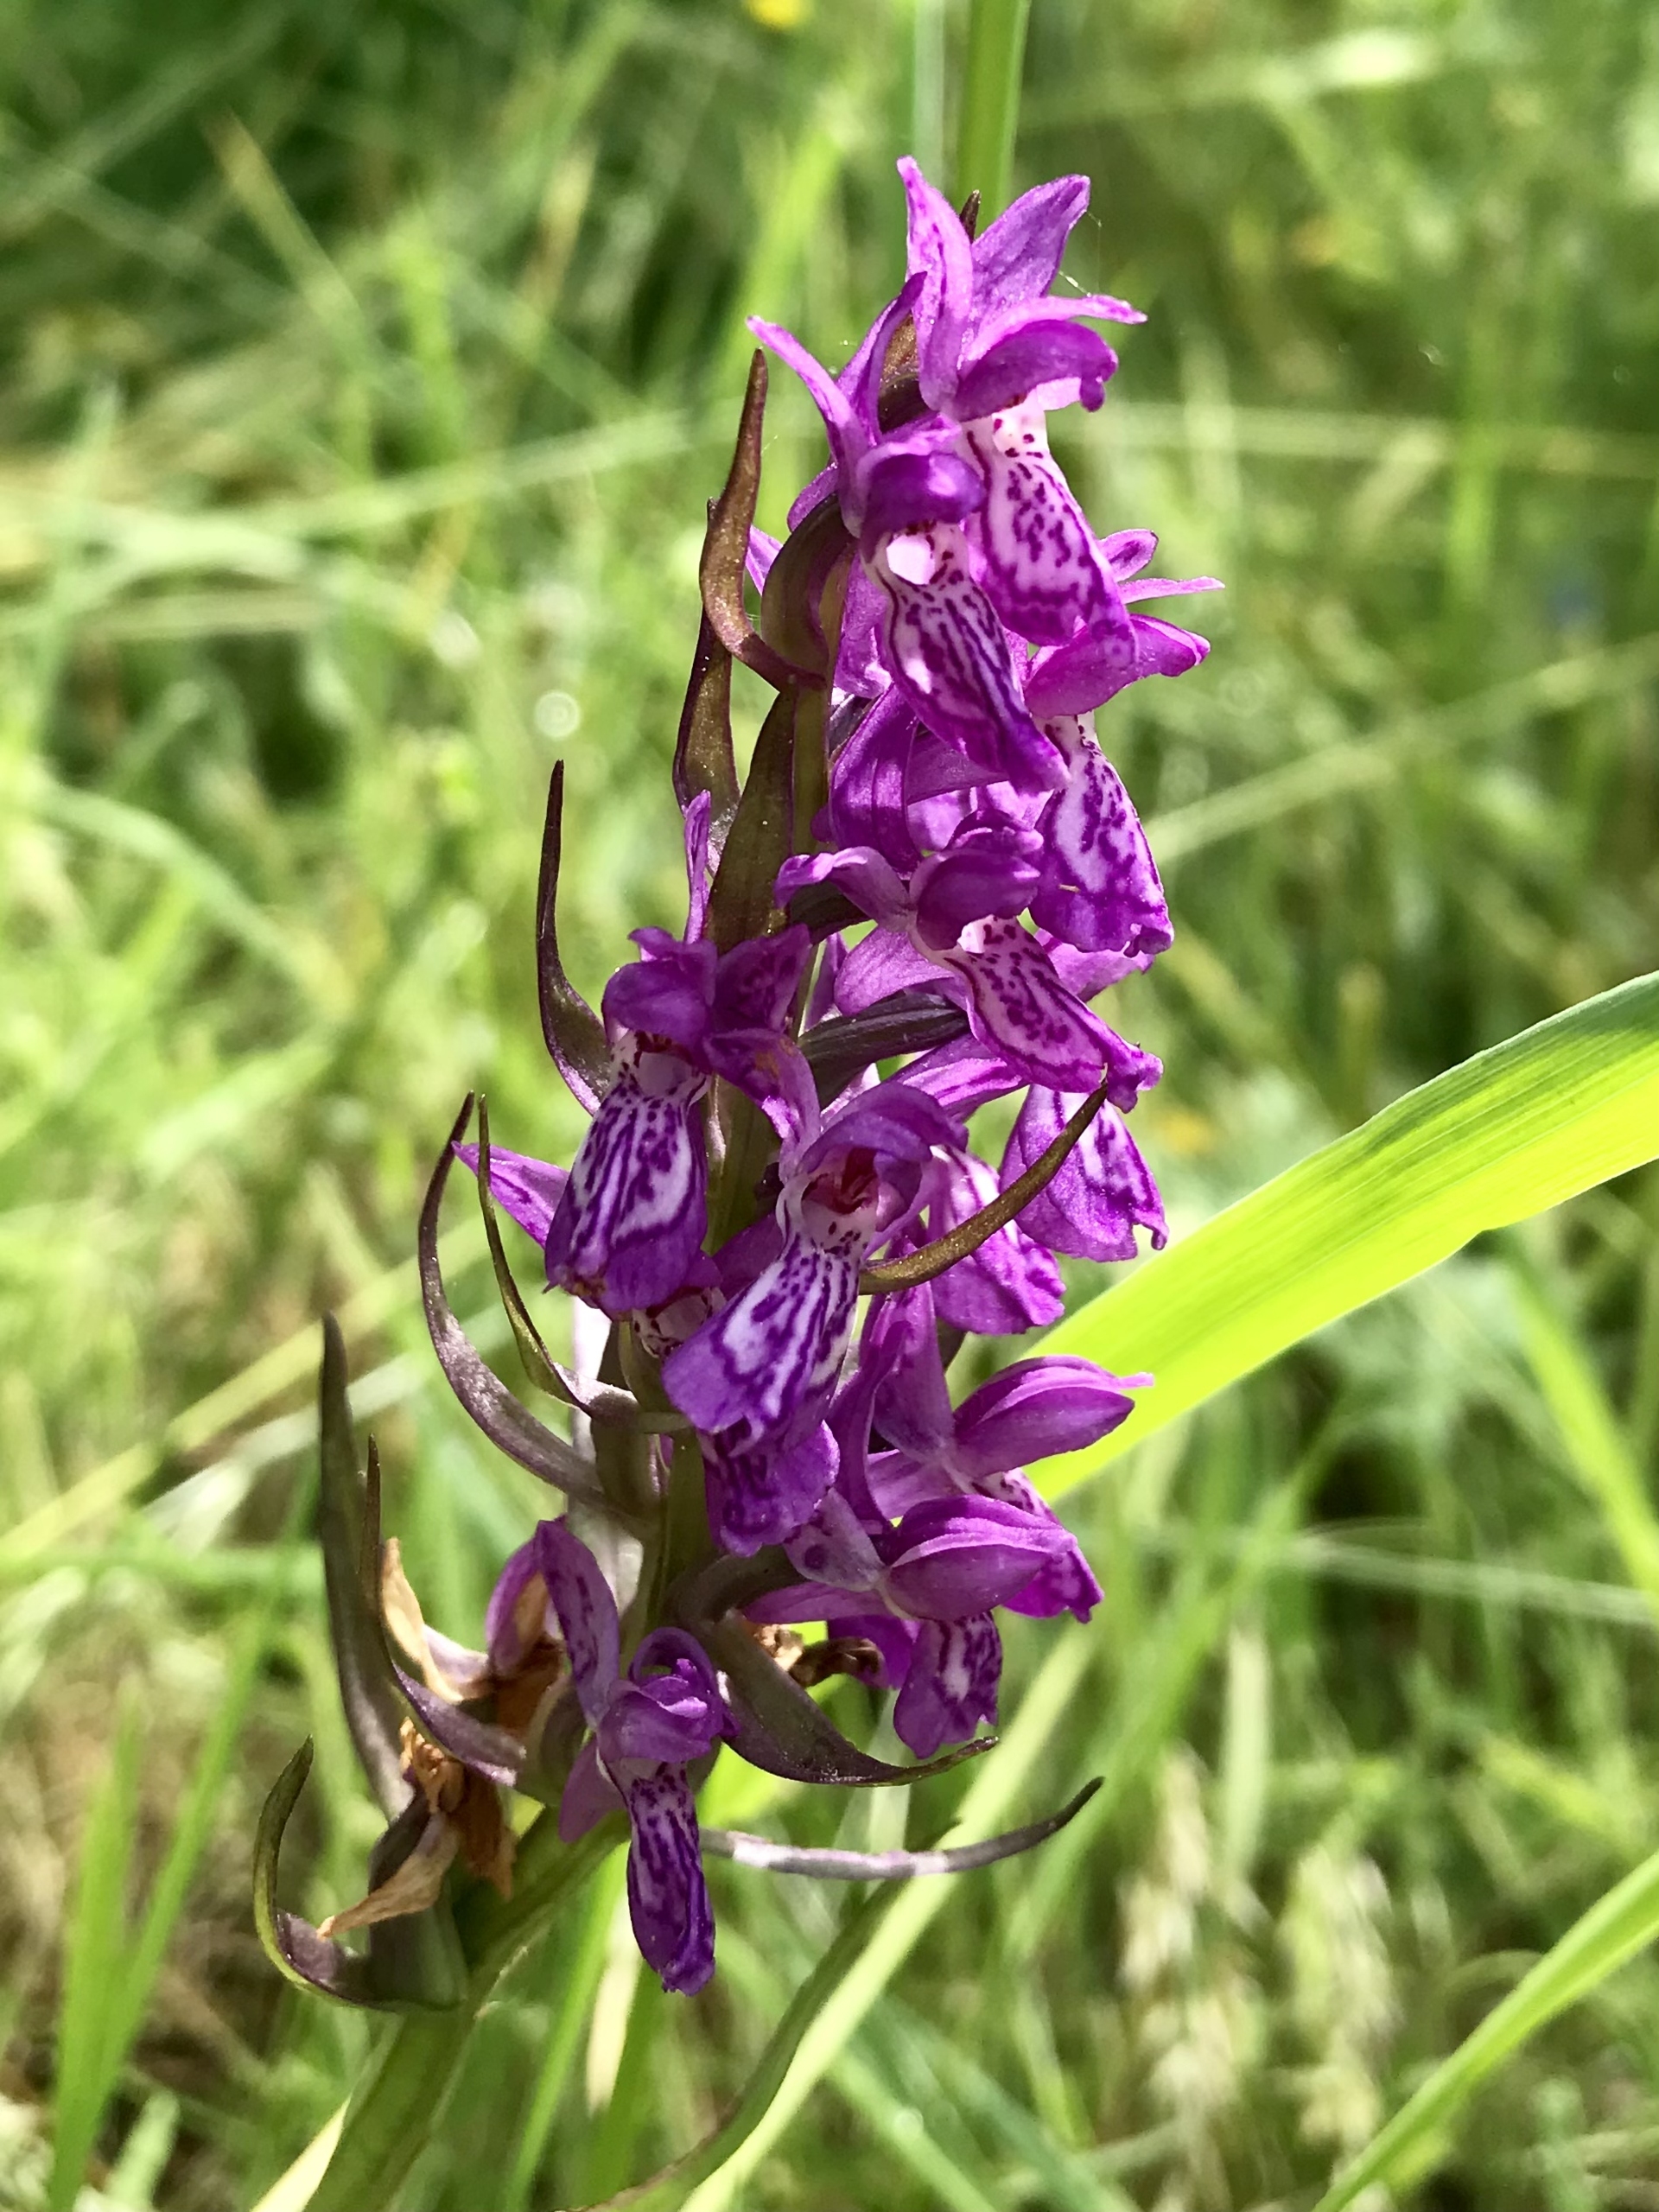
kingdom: Plantae
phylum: Tracheophyta
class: Liliopsida
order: Asparagales
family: Orchidaceae
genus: Dactylorhiza
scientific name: Dactylorhiza majalis
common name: Maj-gøgeurt
